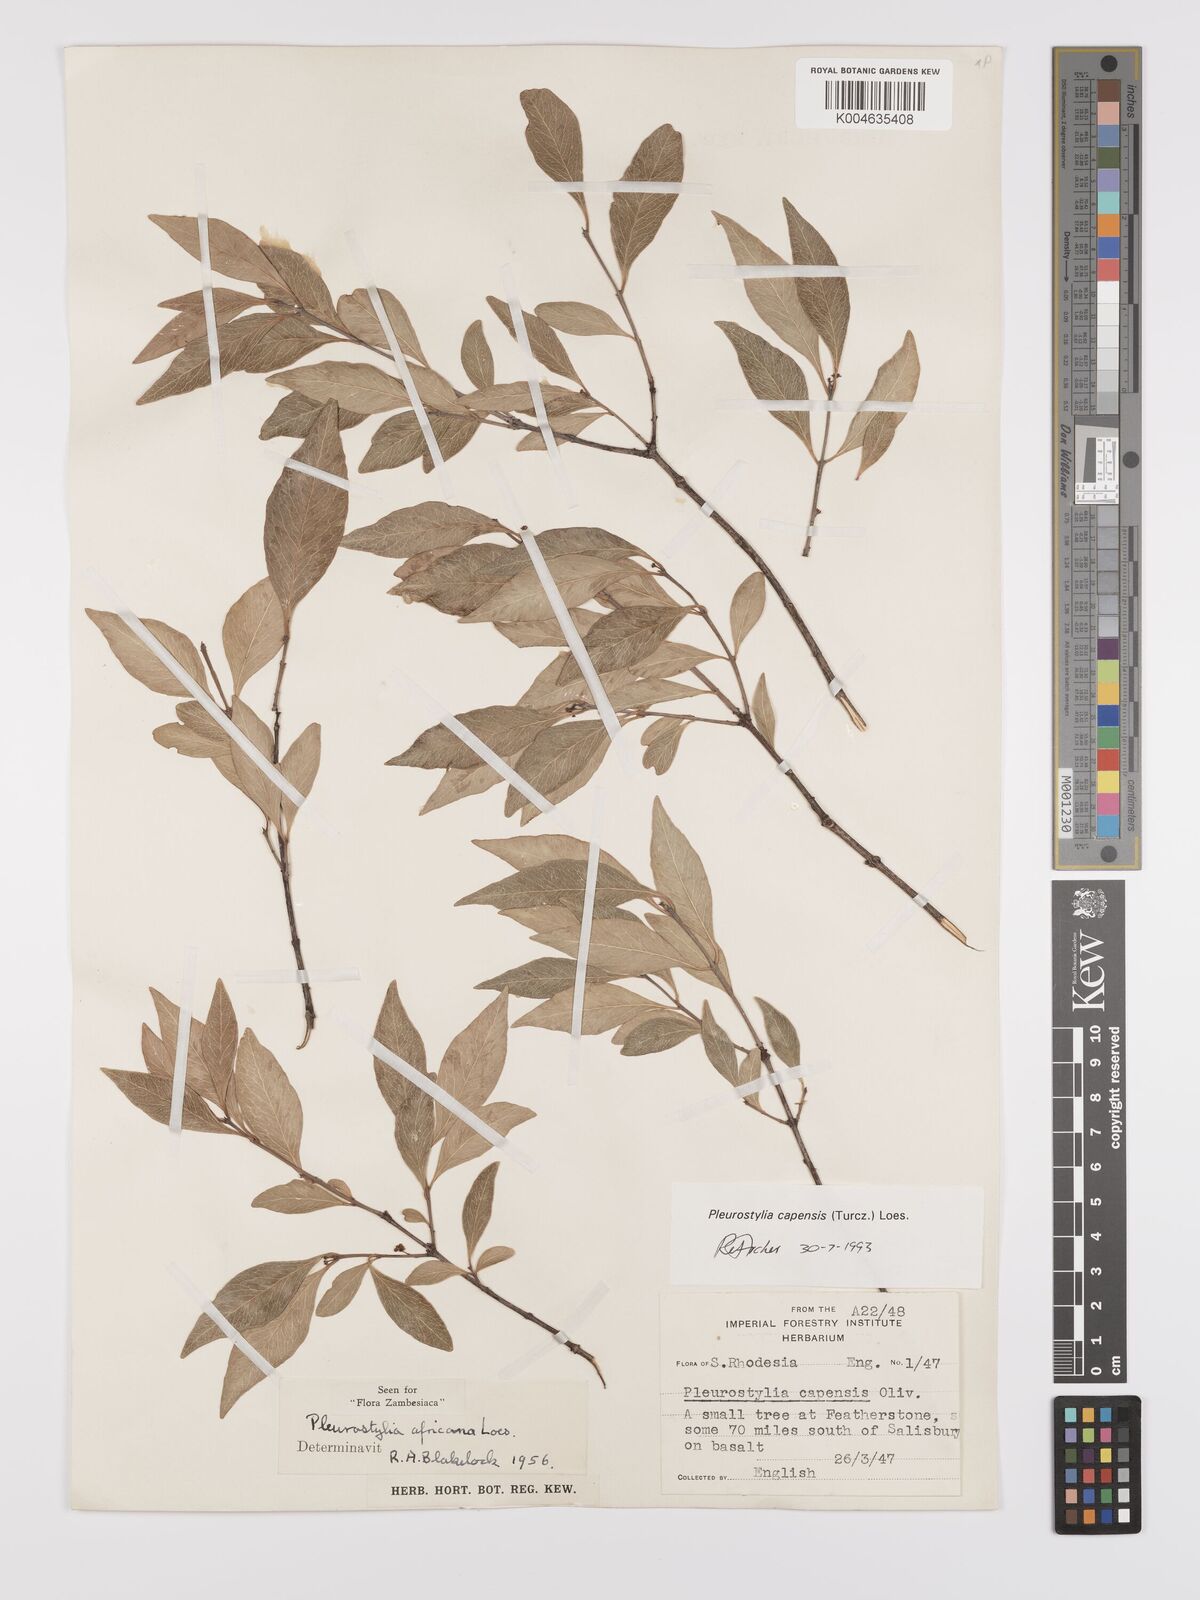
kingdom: Plantae
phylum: Tracheophyta
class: Magnoliopsida
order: Celastrales
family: Celastraceae
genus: Pleurostylia
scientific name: Pleurostylia africana
